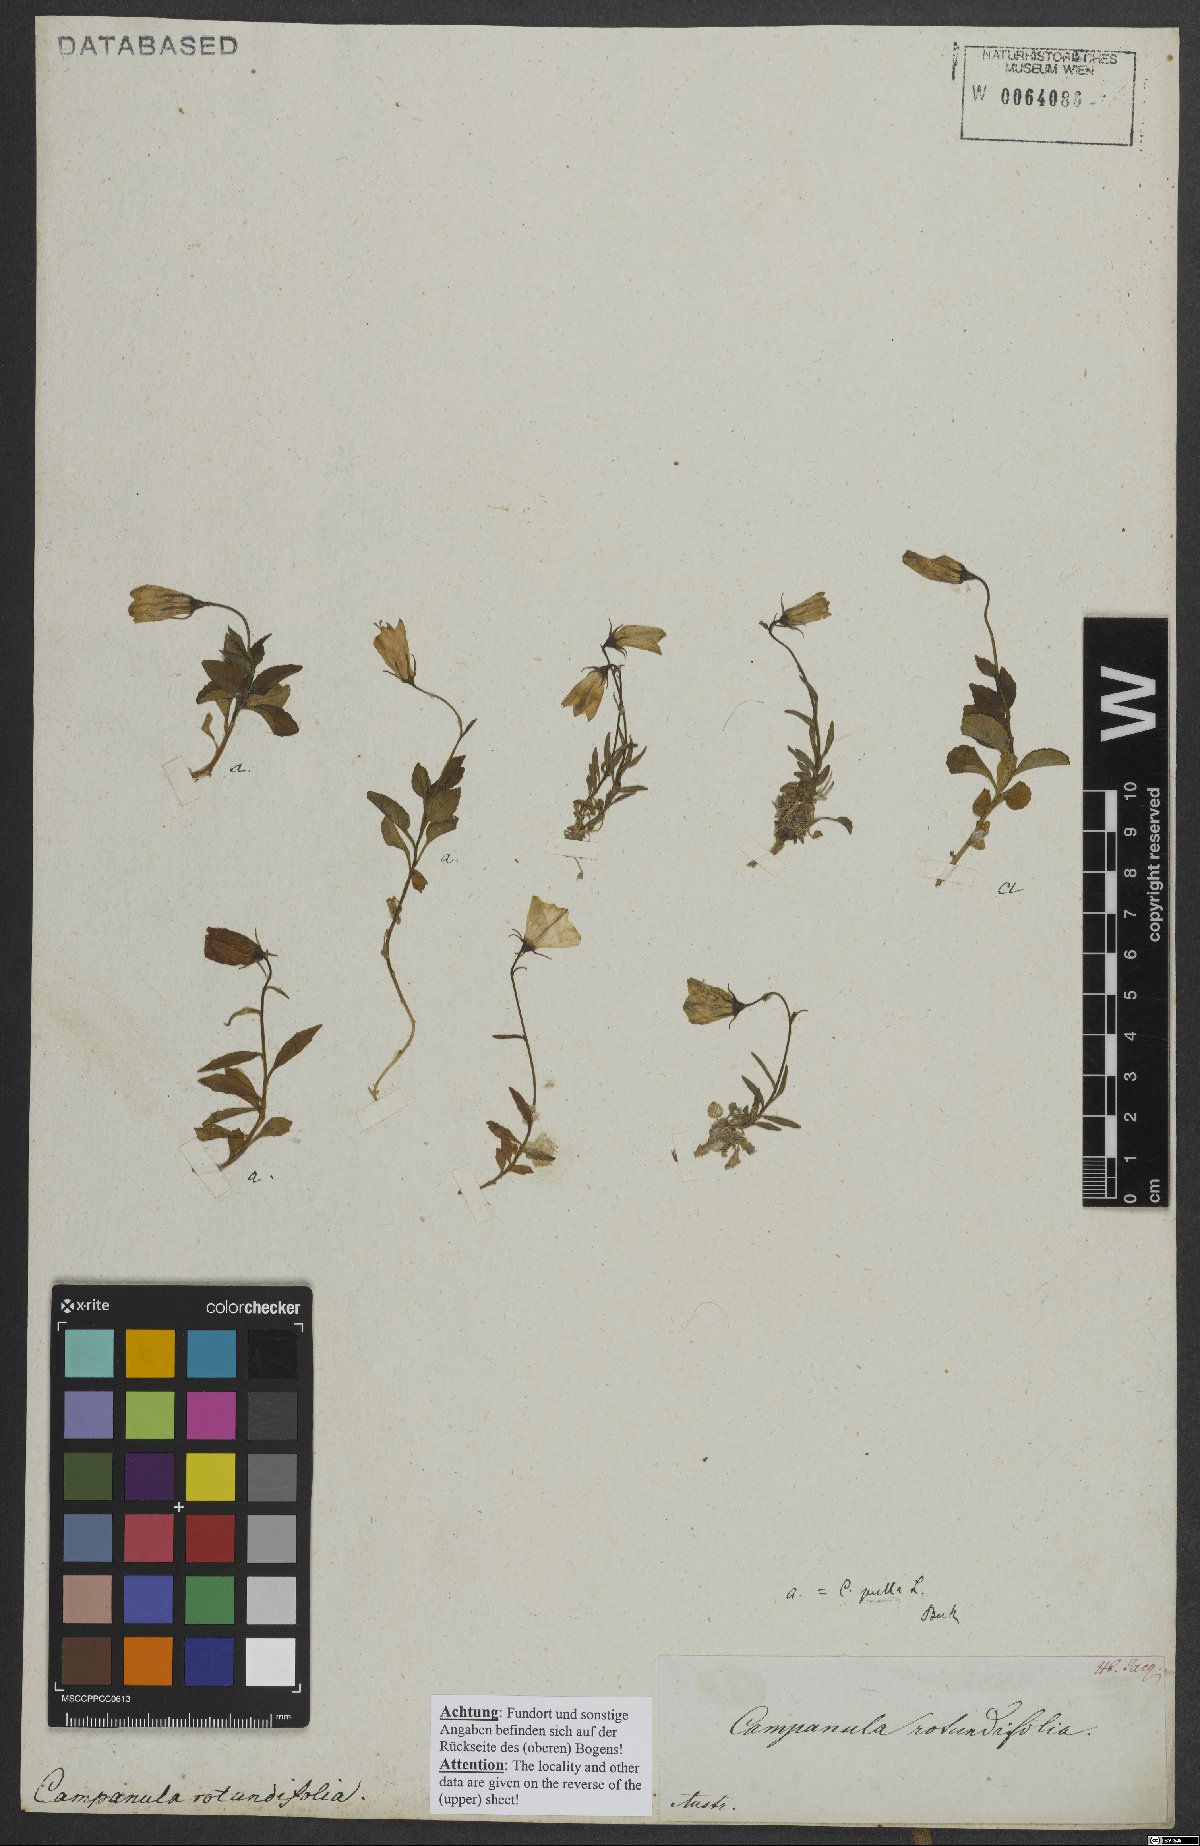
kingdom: Plantae
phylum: Tracheophyta
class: Magnoliopsida
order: Asterales
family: Campanulaceae
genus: Campanula
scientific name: Campanula rotundifolia
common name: Harebell
